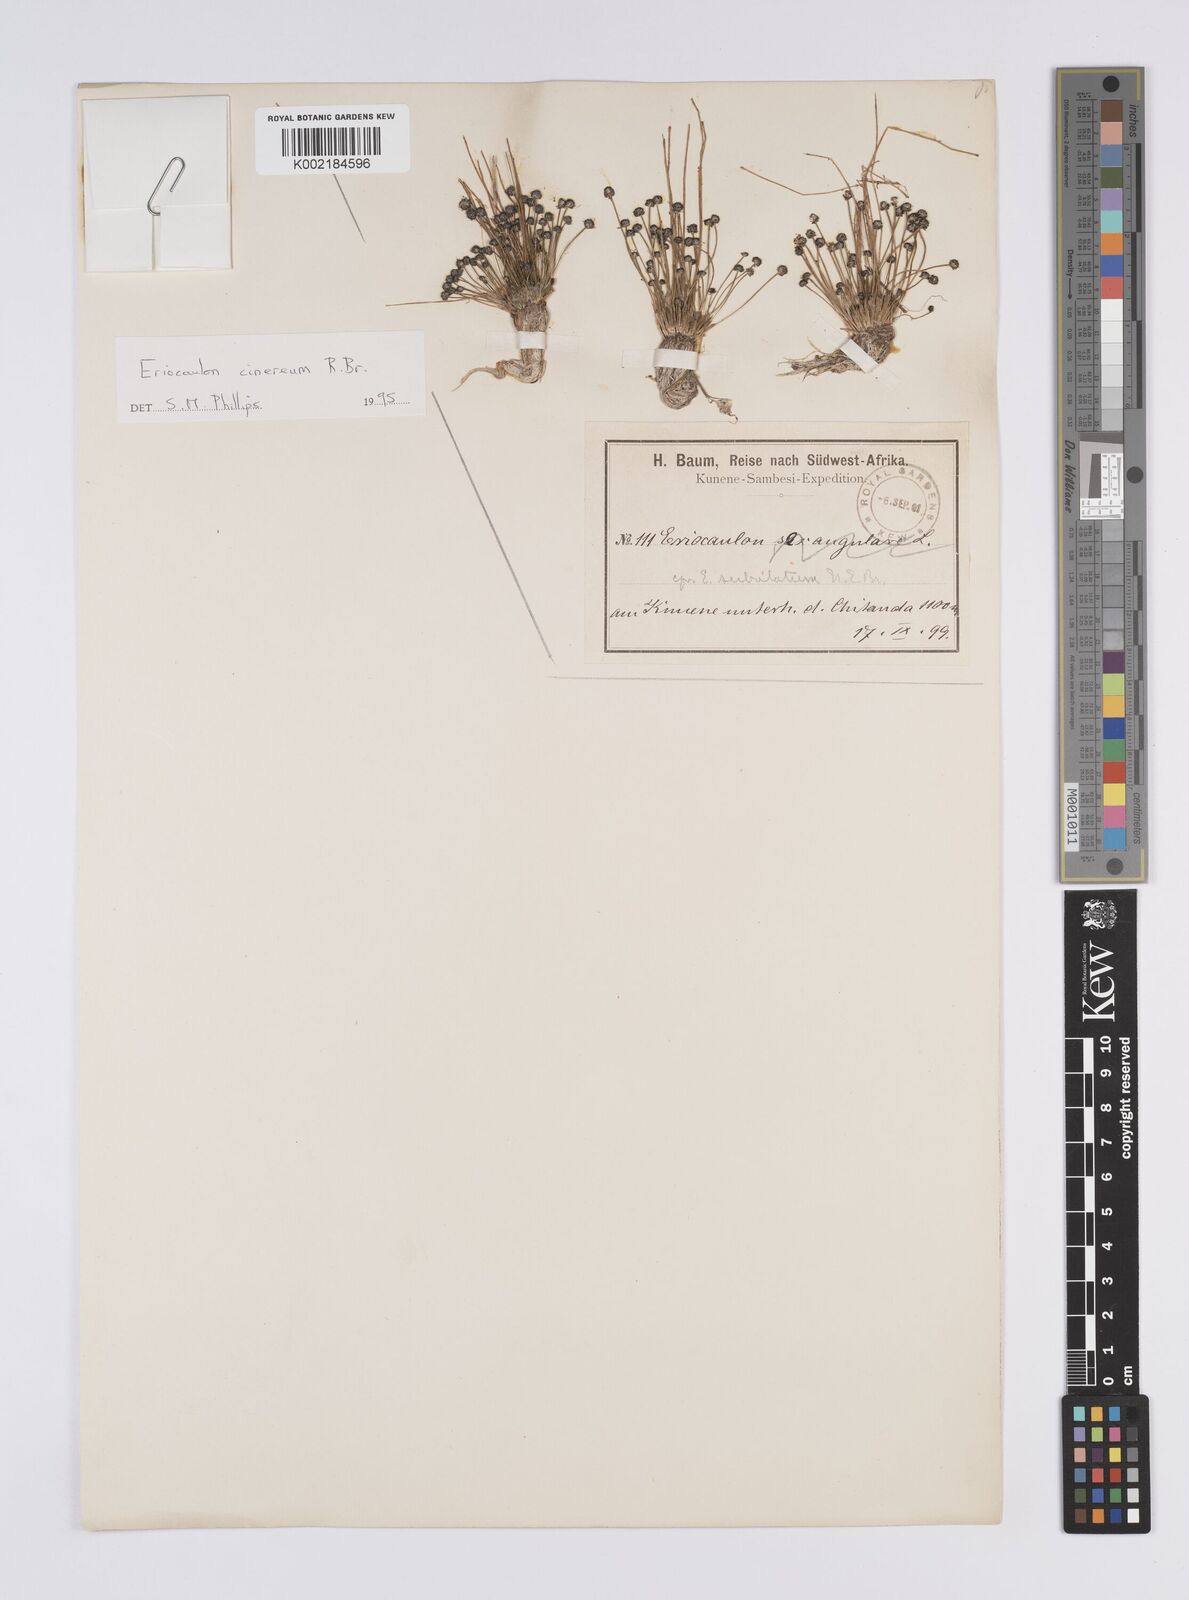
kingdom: Plantae
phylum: Tracheophyta
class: Liliopsida
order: Poales
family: Eriocaulaceae
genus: Eriocaulon
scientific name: Eriocaulon cinereum
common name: Ashy pipewort
